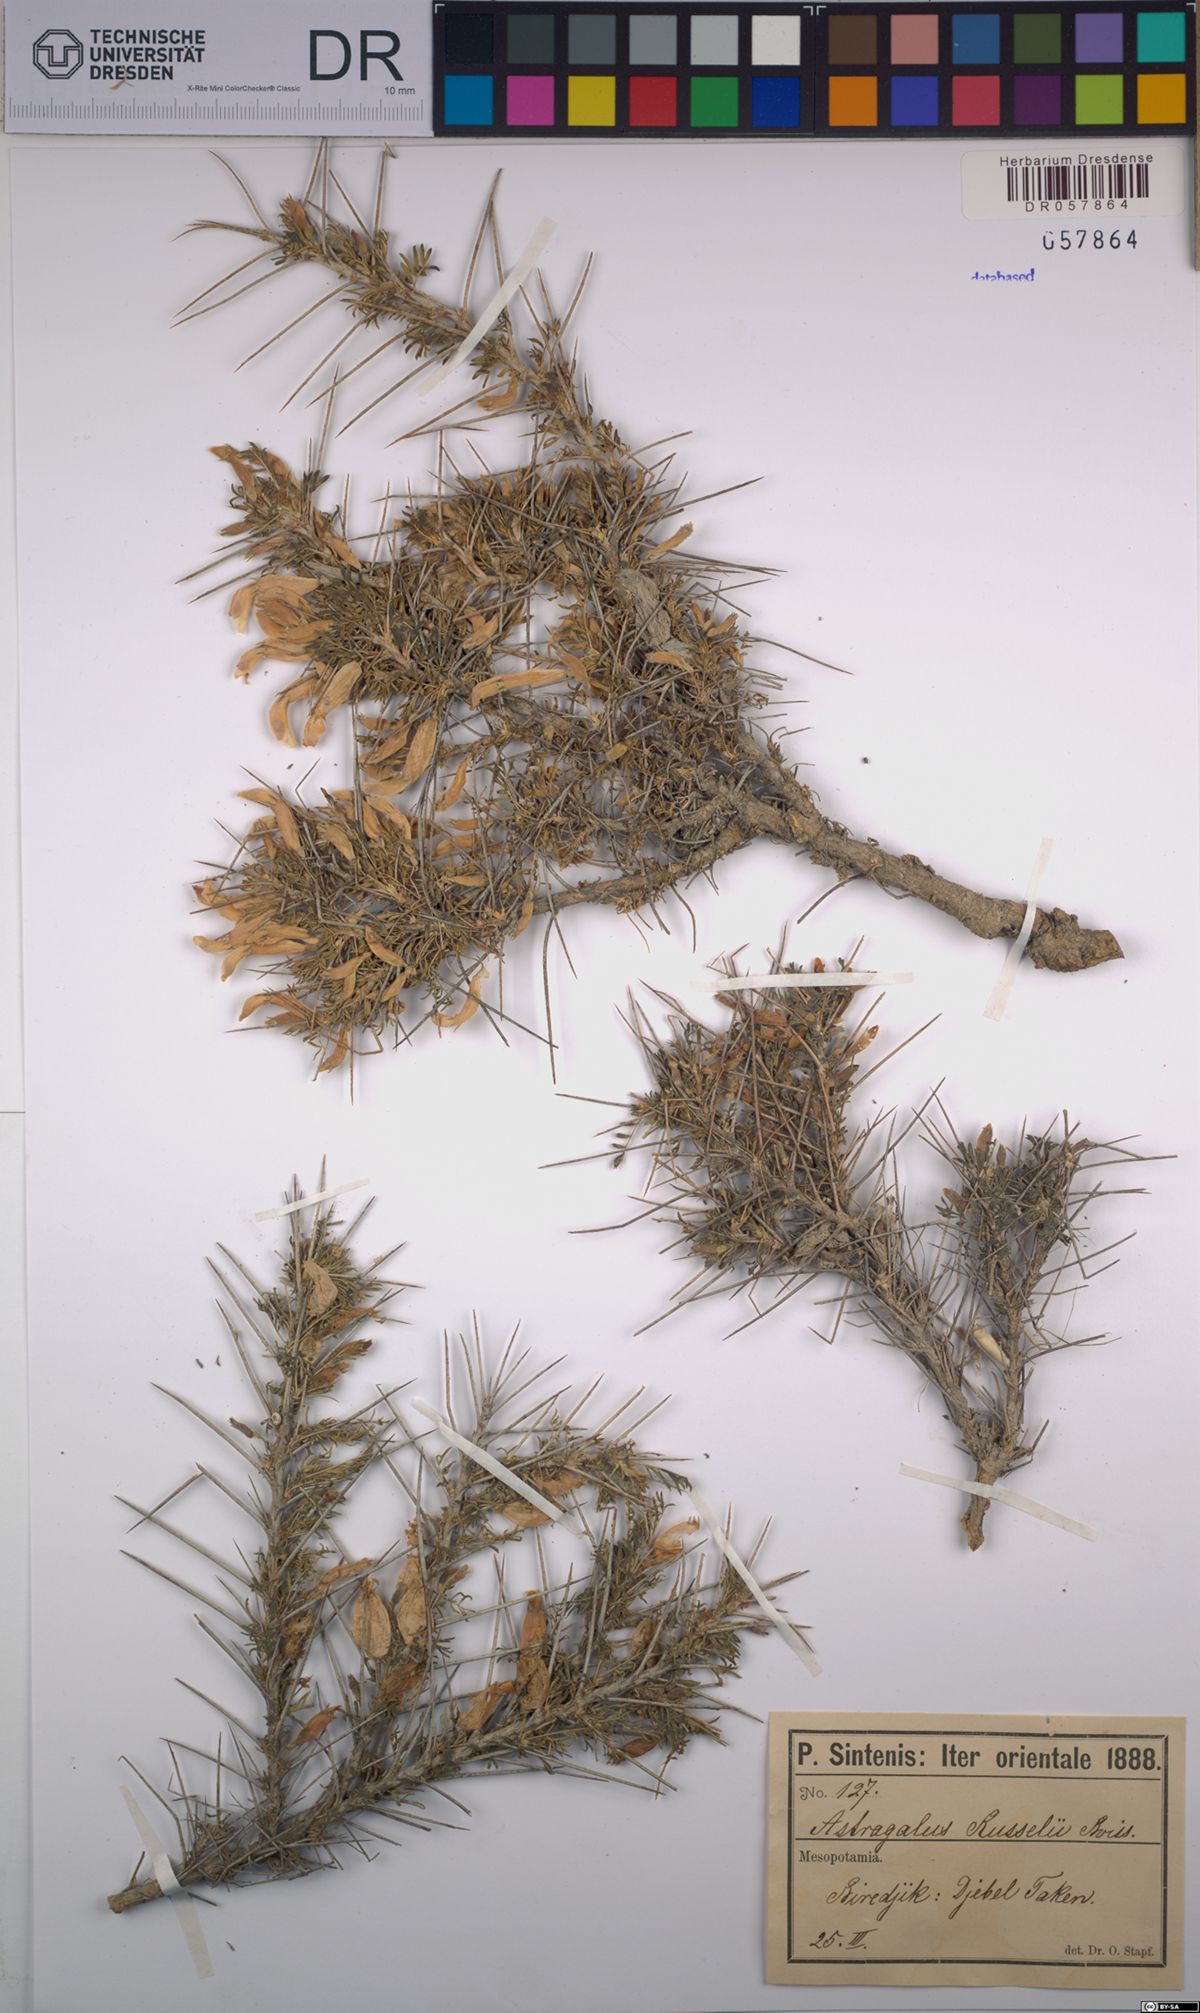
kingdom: Plantae
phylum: Tracheophyta
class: Magnoliopsida
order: Fabales
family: Fabaceae
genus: Astragalus
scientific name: Astragalus russellii
